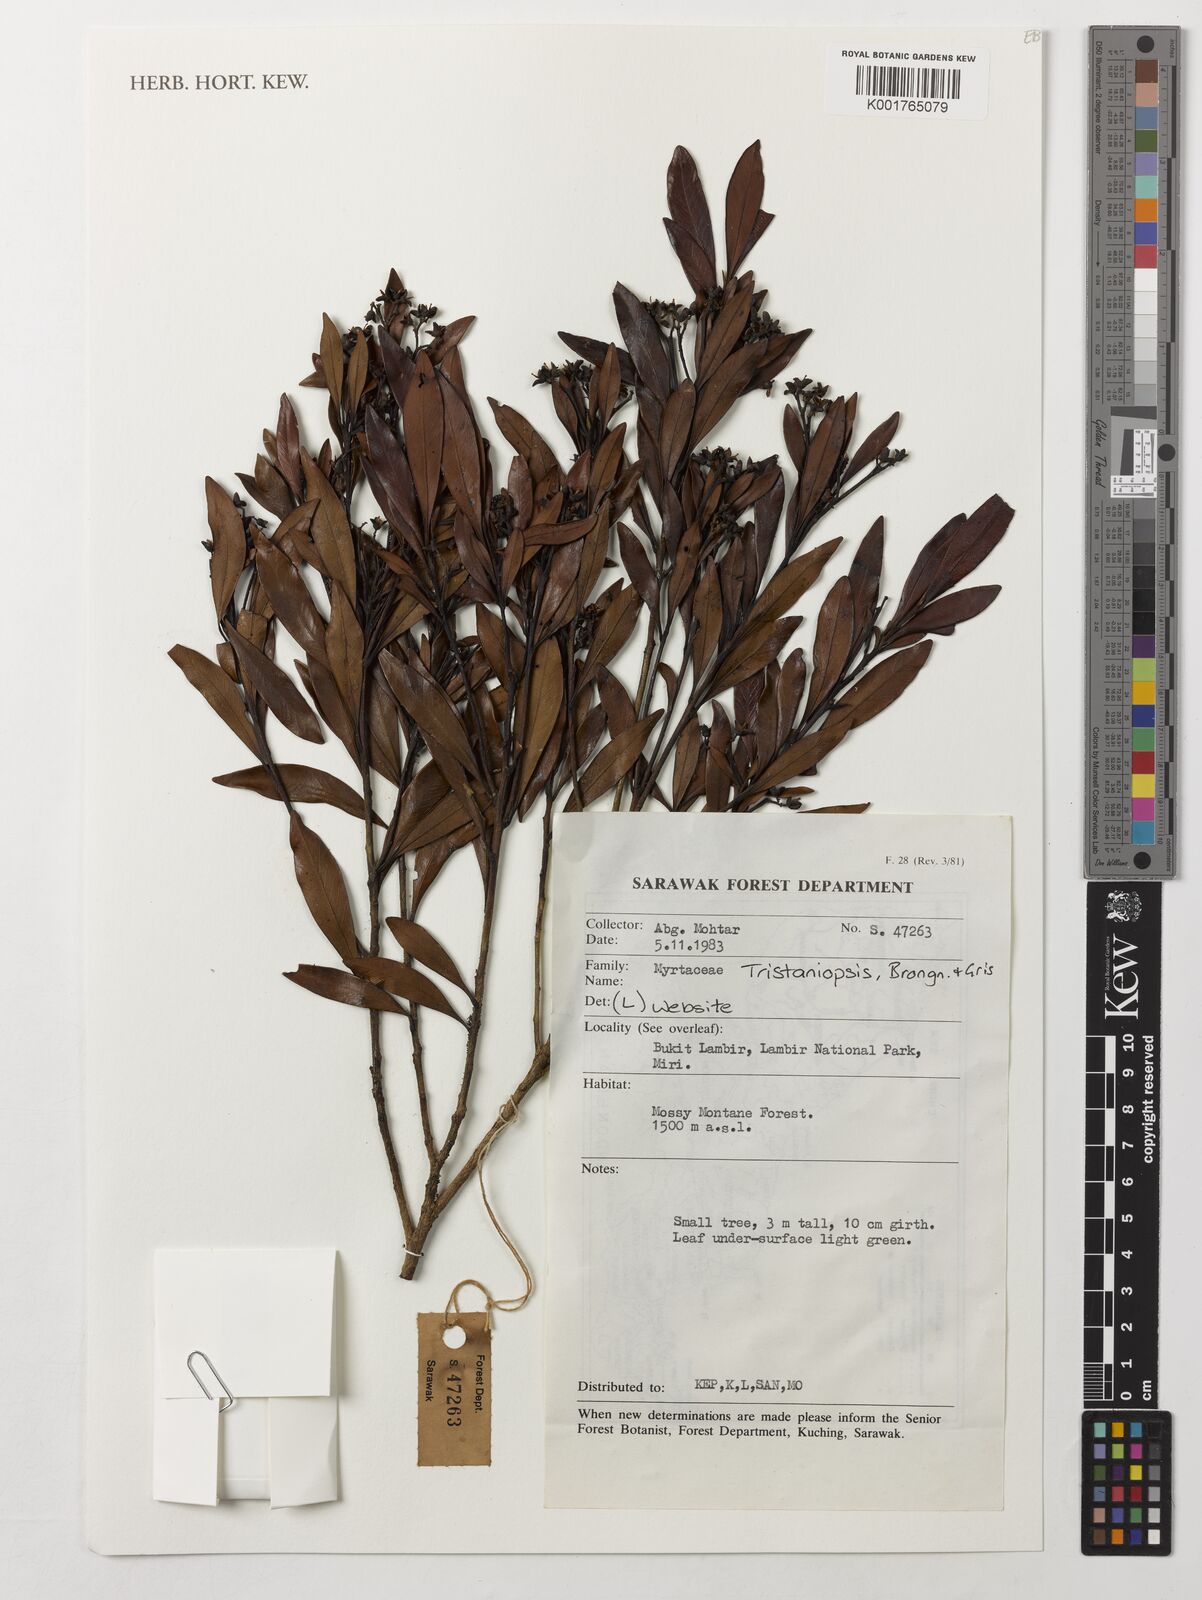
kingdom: Plantae
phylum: Tracheophyta
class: Magnoliopsida
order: Myrtales
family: Myrtaceae
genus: Tristaniopsis
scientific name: Tristaniopsis
